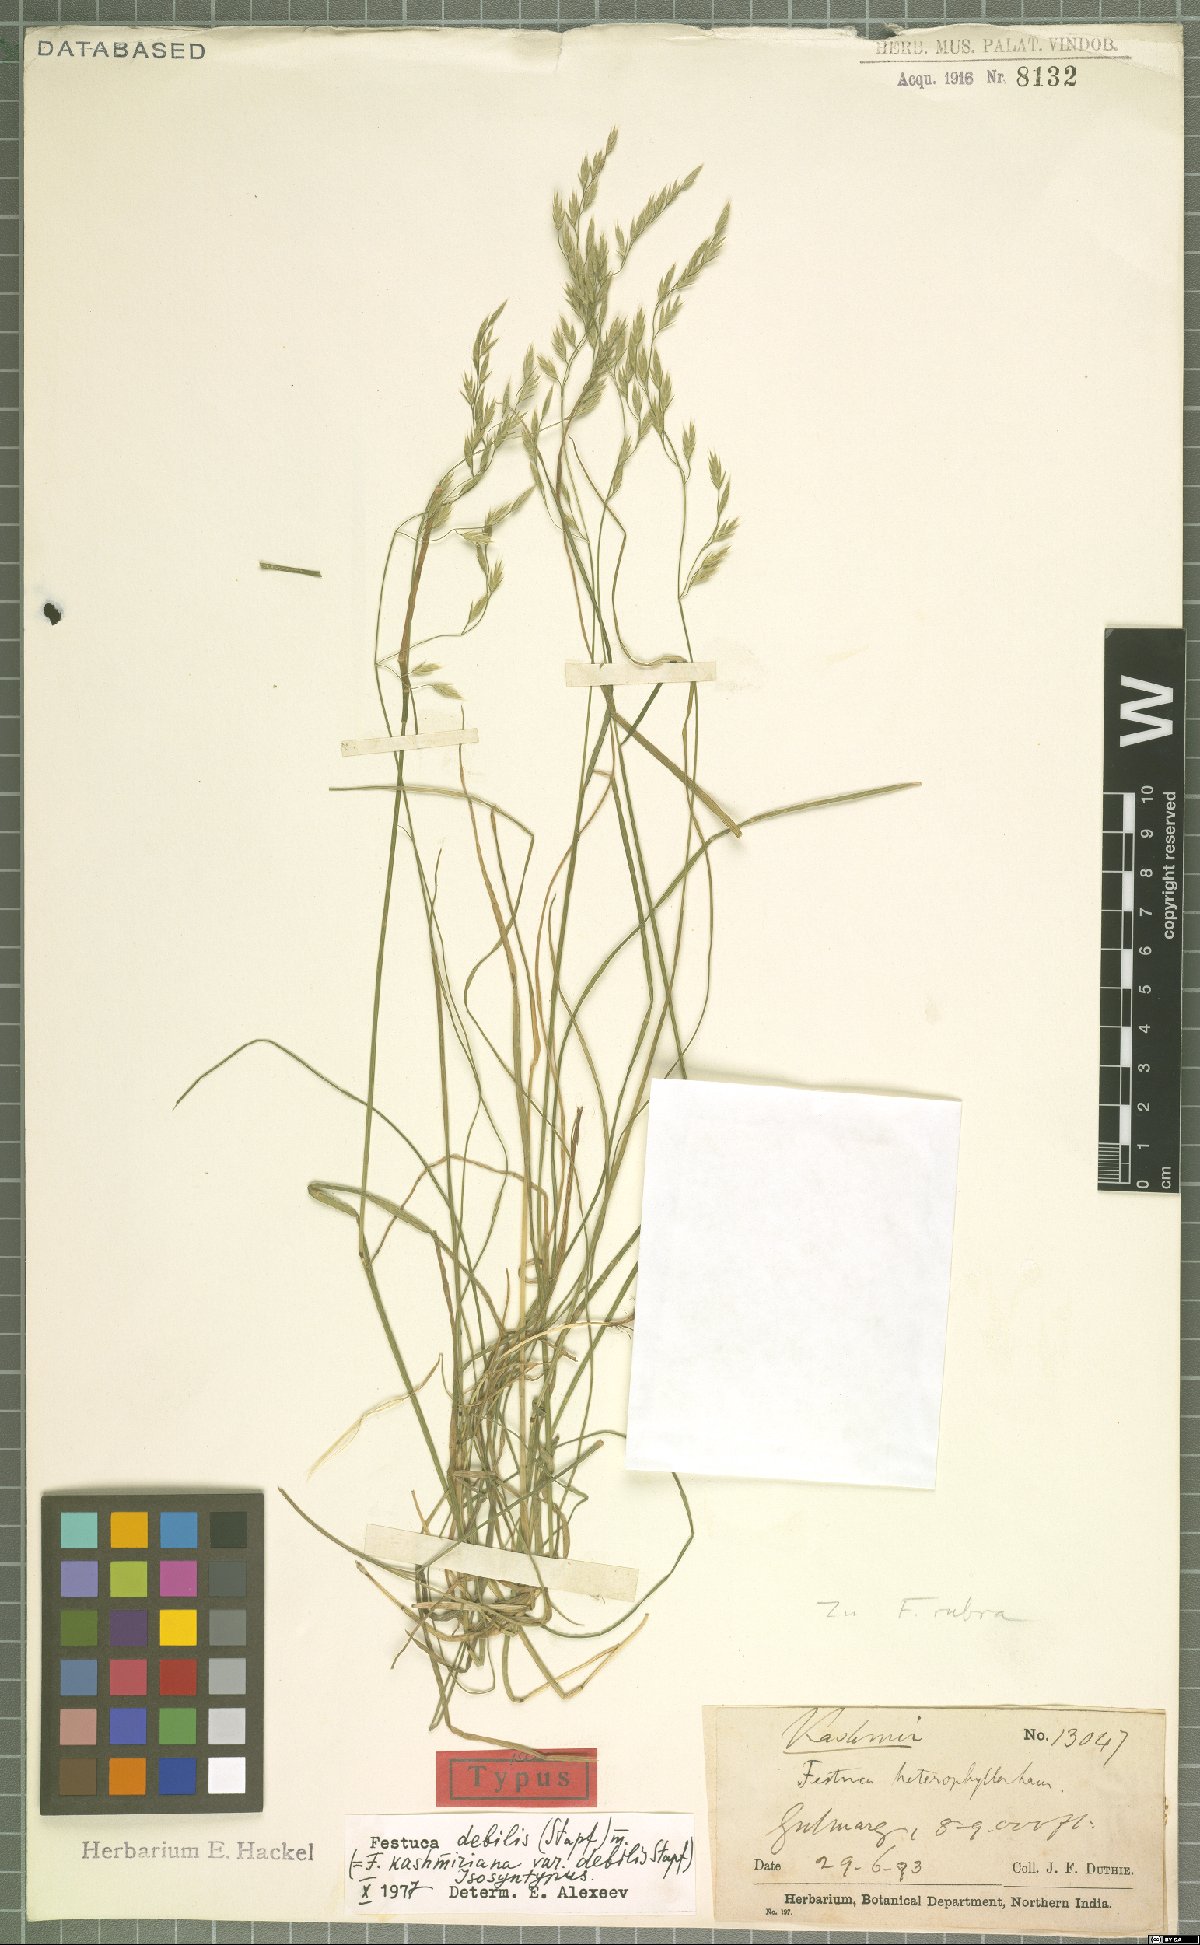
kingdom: Plantae
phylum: Tracheophyta
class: Liliopsida
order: Poales
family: Poaceae
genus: Festuca
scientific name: Festuca debilis
